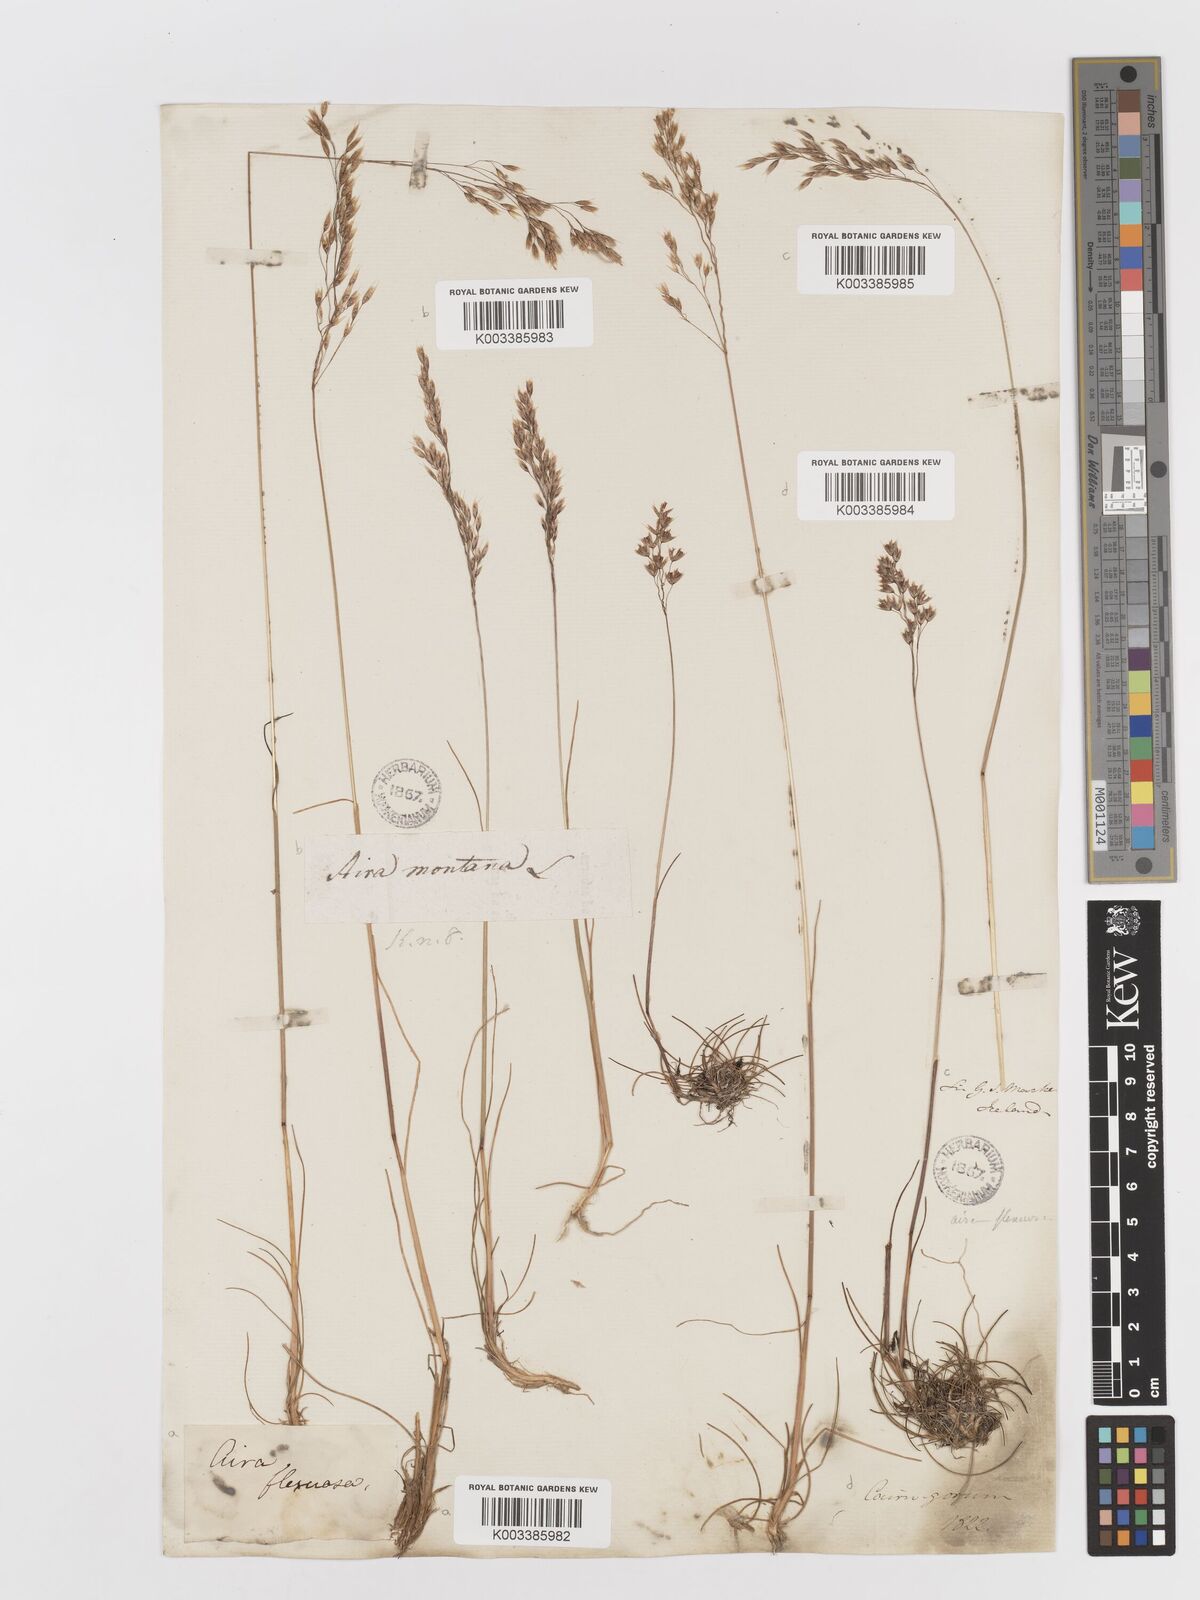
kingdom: Plantae
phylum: Tracheophyta
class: Liliopsida
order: Poales
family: Poaceae
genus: Avenella
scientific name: Avenella flexuosa
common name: Wavy hairgrass
